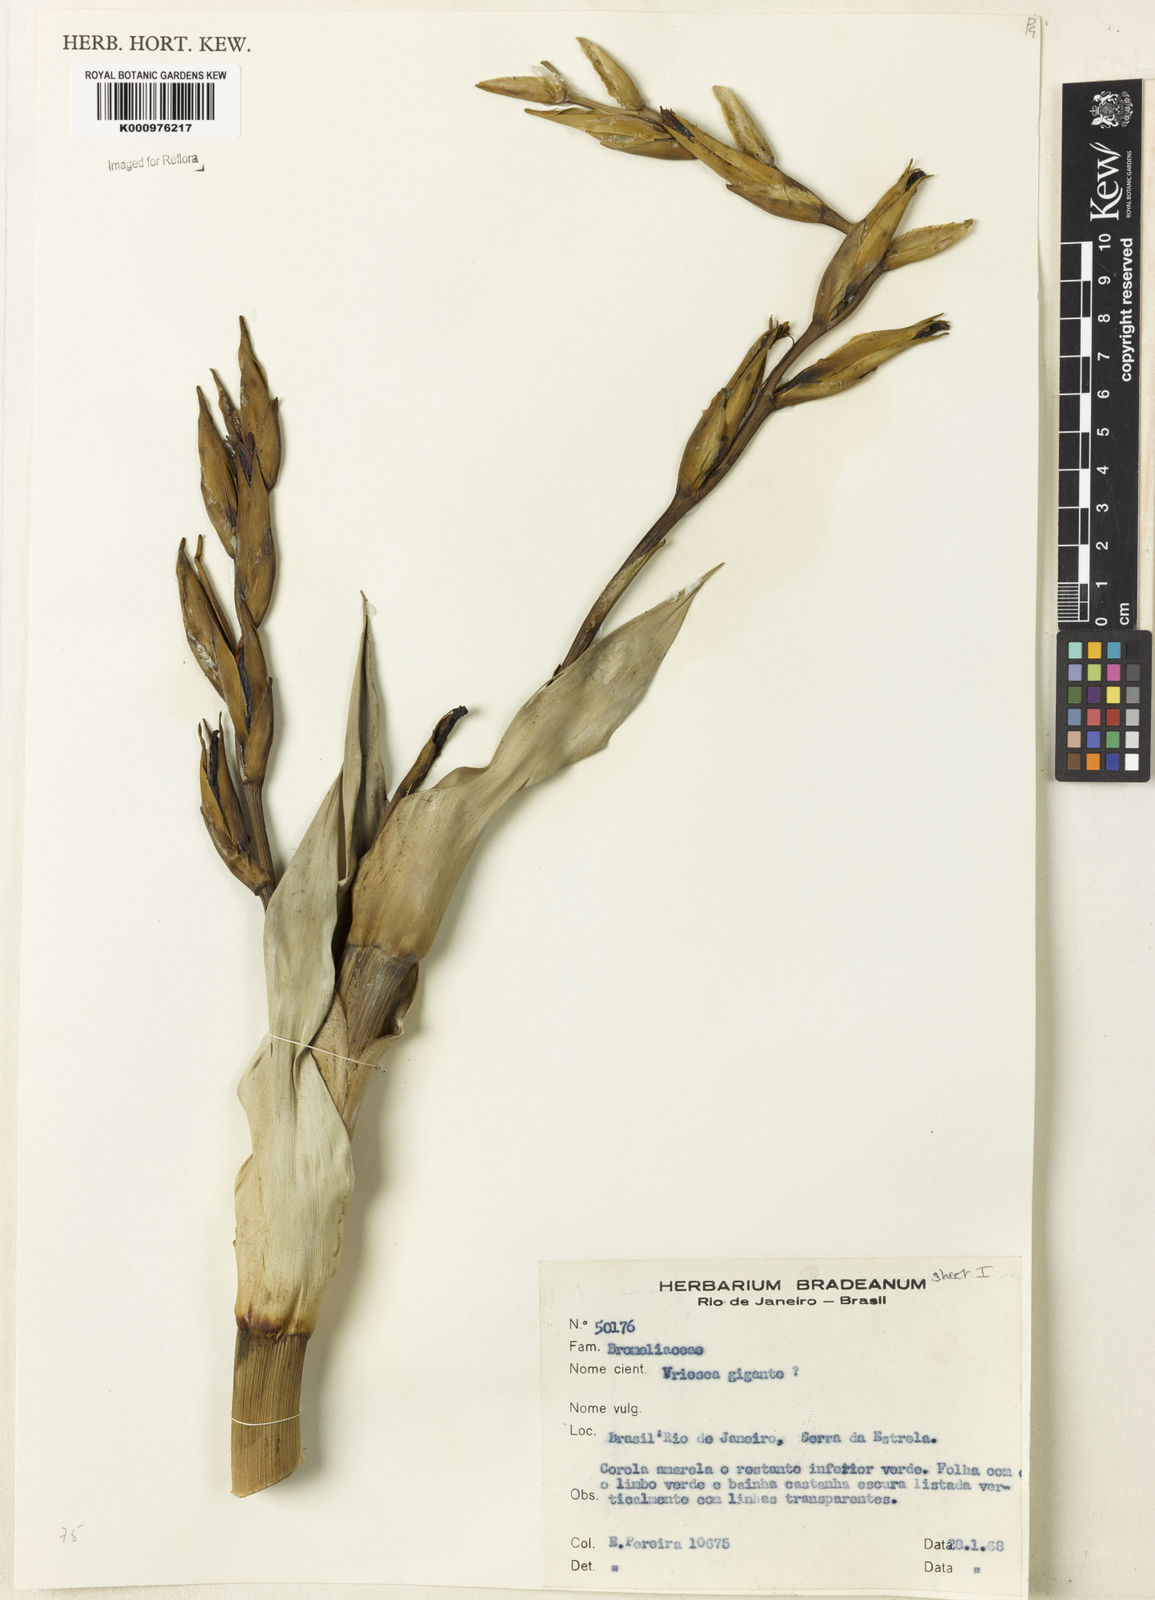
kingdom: Plantae
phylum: Tracheophyta
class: Liliopsida
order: Poales
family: Bromeliaceae
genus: Vriesea
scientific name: Vriesea gigantea
